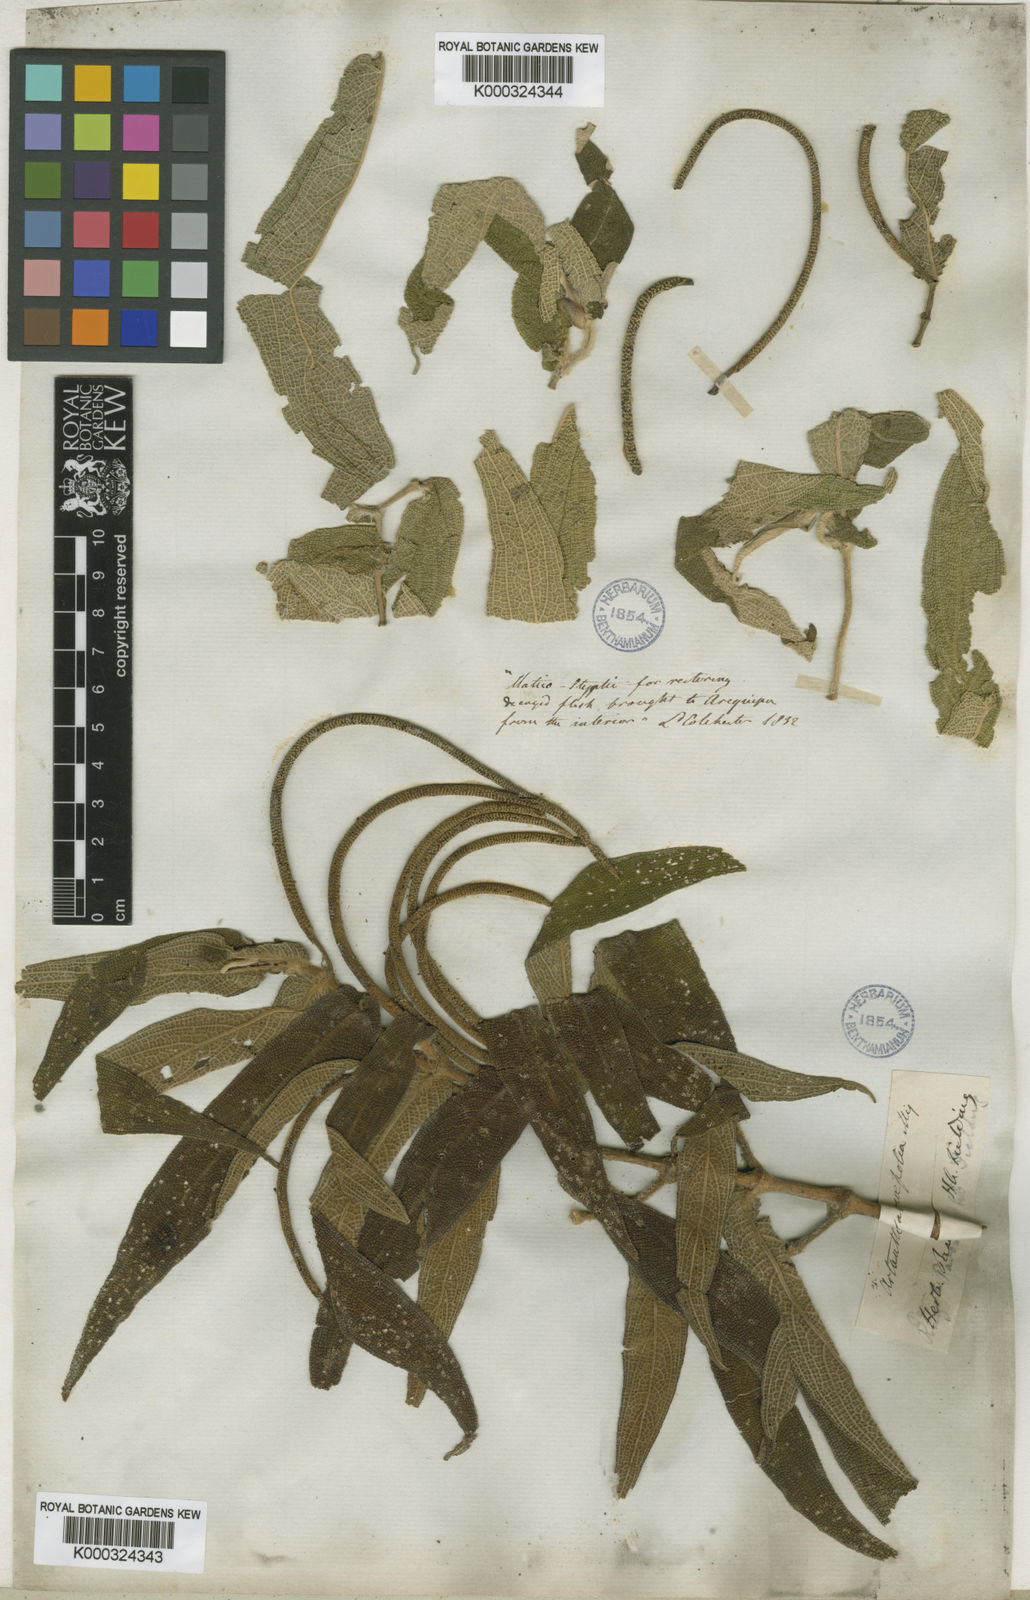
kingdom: Plantae
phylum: Tracheophyta
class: Magnoliopsida
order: Piperales
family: Piperaceae
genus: Piper
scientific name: Piper aduncum
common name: Spiked pepper
